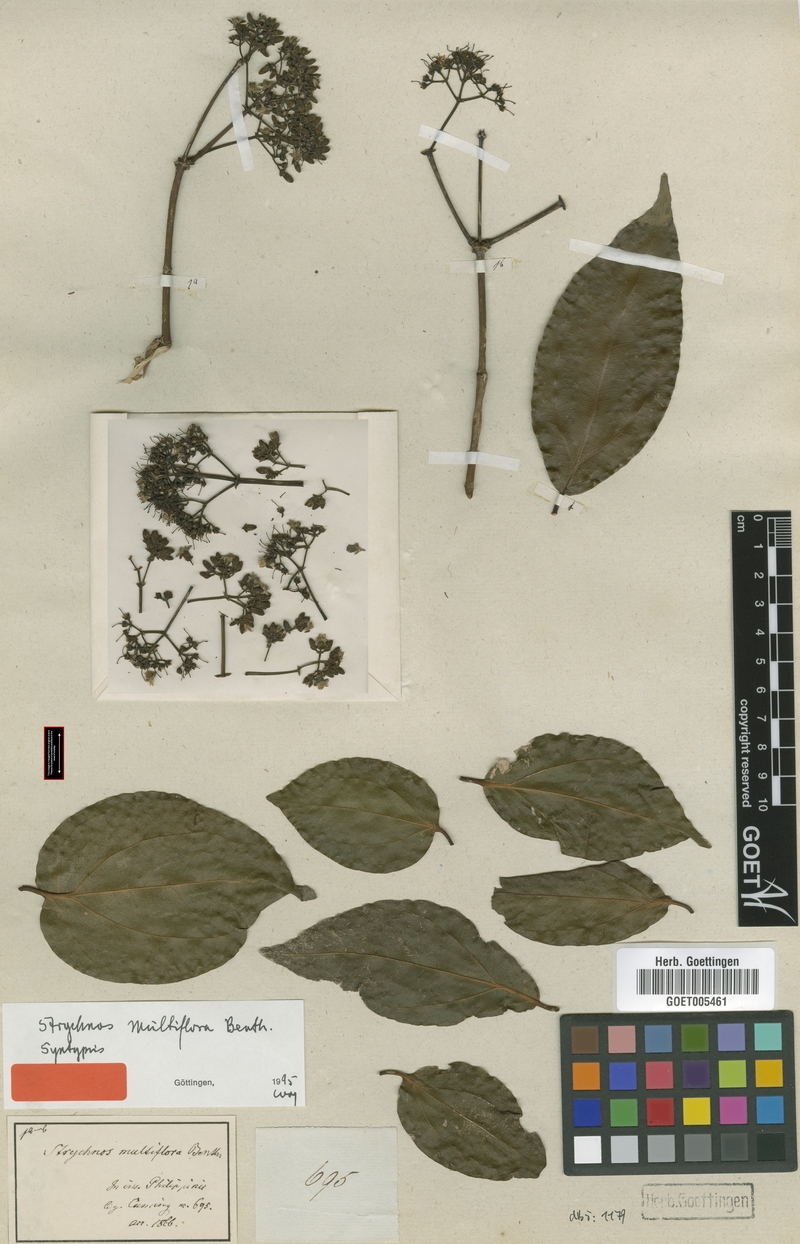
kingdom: Plantae
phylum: Tracheophyta
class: Magnoliopsida
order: Gentianales
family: Loganiaceae
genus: Strychnos
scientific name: Strychnos minor
